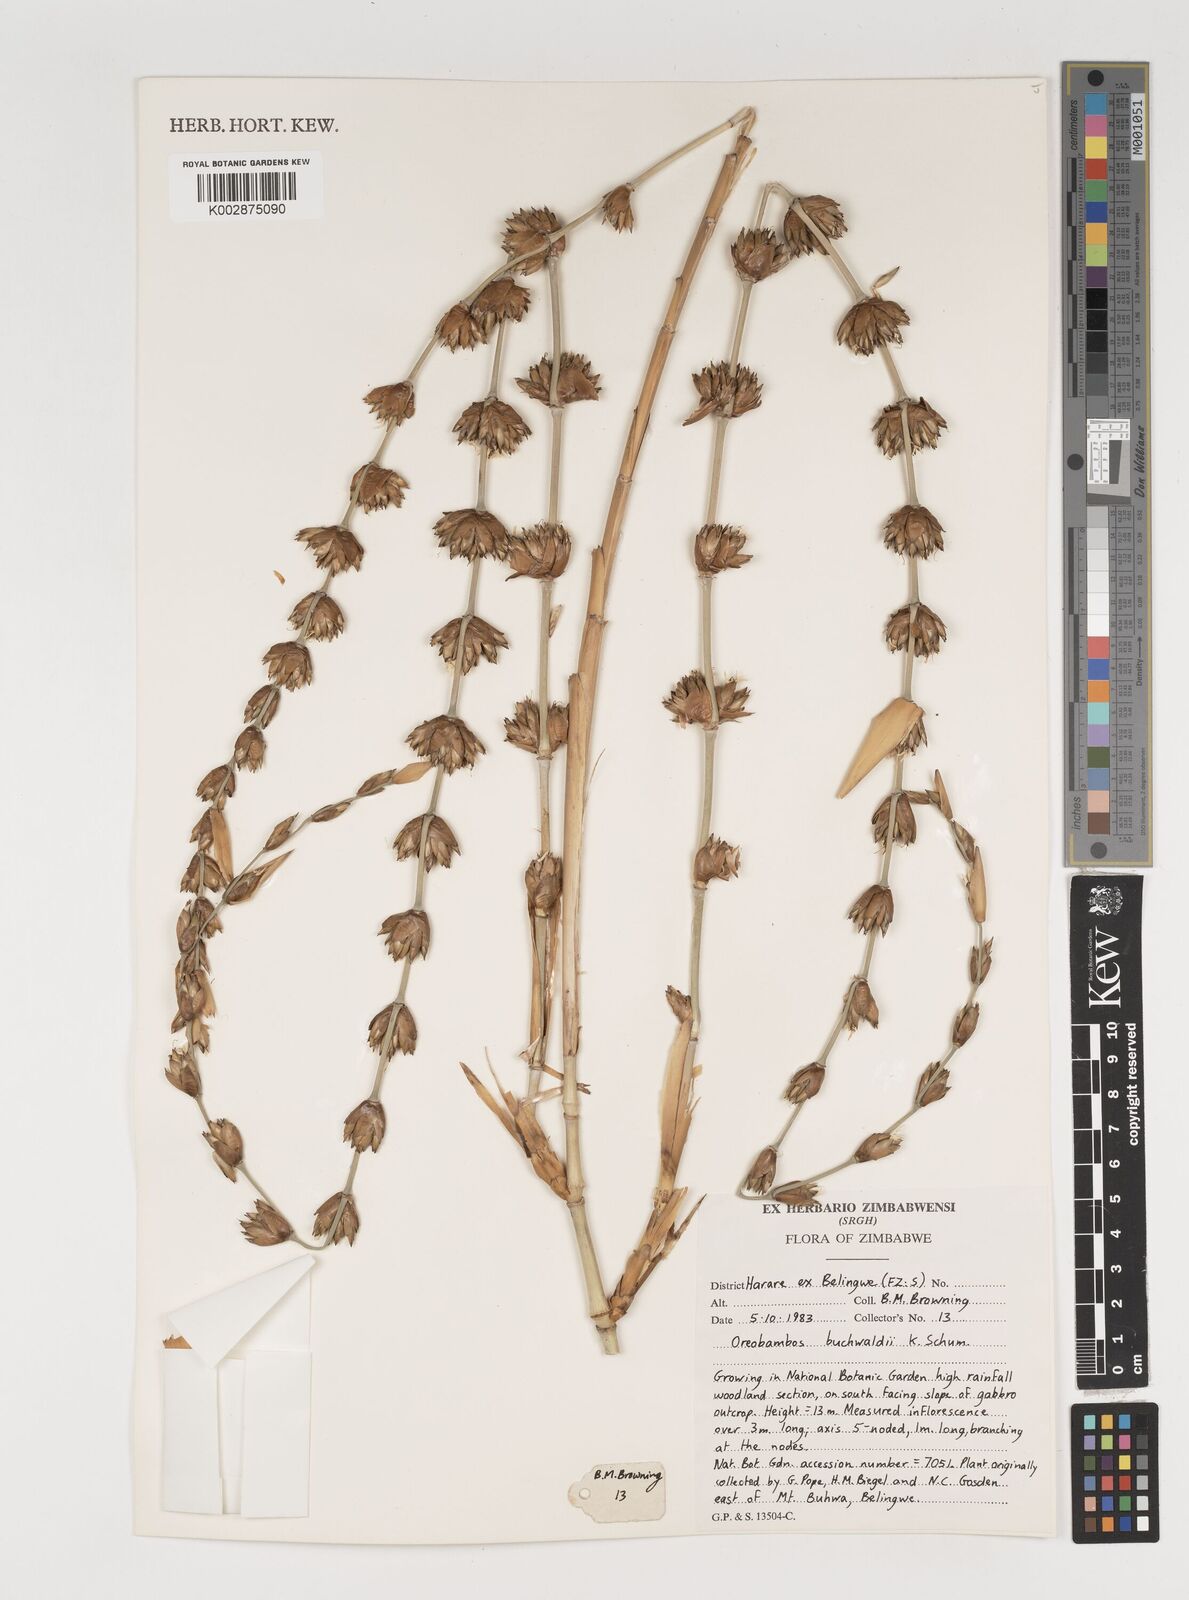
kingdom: Plantae
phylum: Tracheophyta
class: Liliopsida
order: Poales
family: Poaceae
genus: Oreobambos
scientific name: Oreobambos buchwaldii
